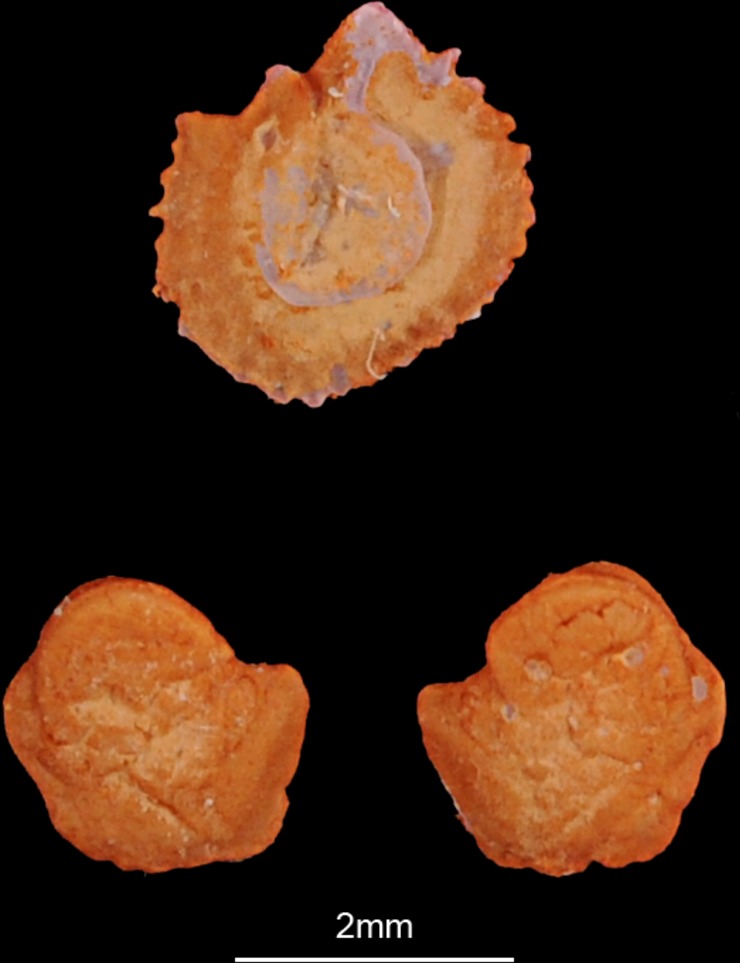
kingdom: Animalia
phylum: Chordata
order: Cypriniformes
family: Cyprinidae
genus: Vimba
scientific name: Vimba vimba
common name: Vimba
